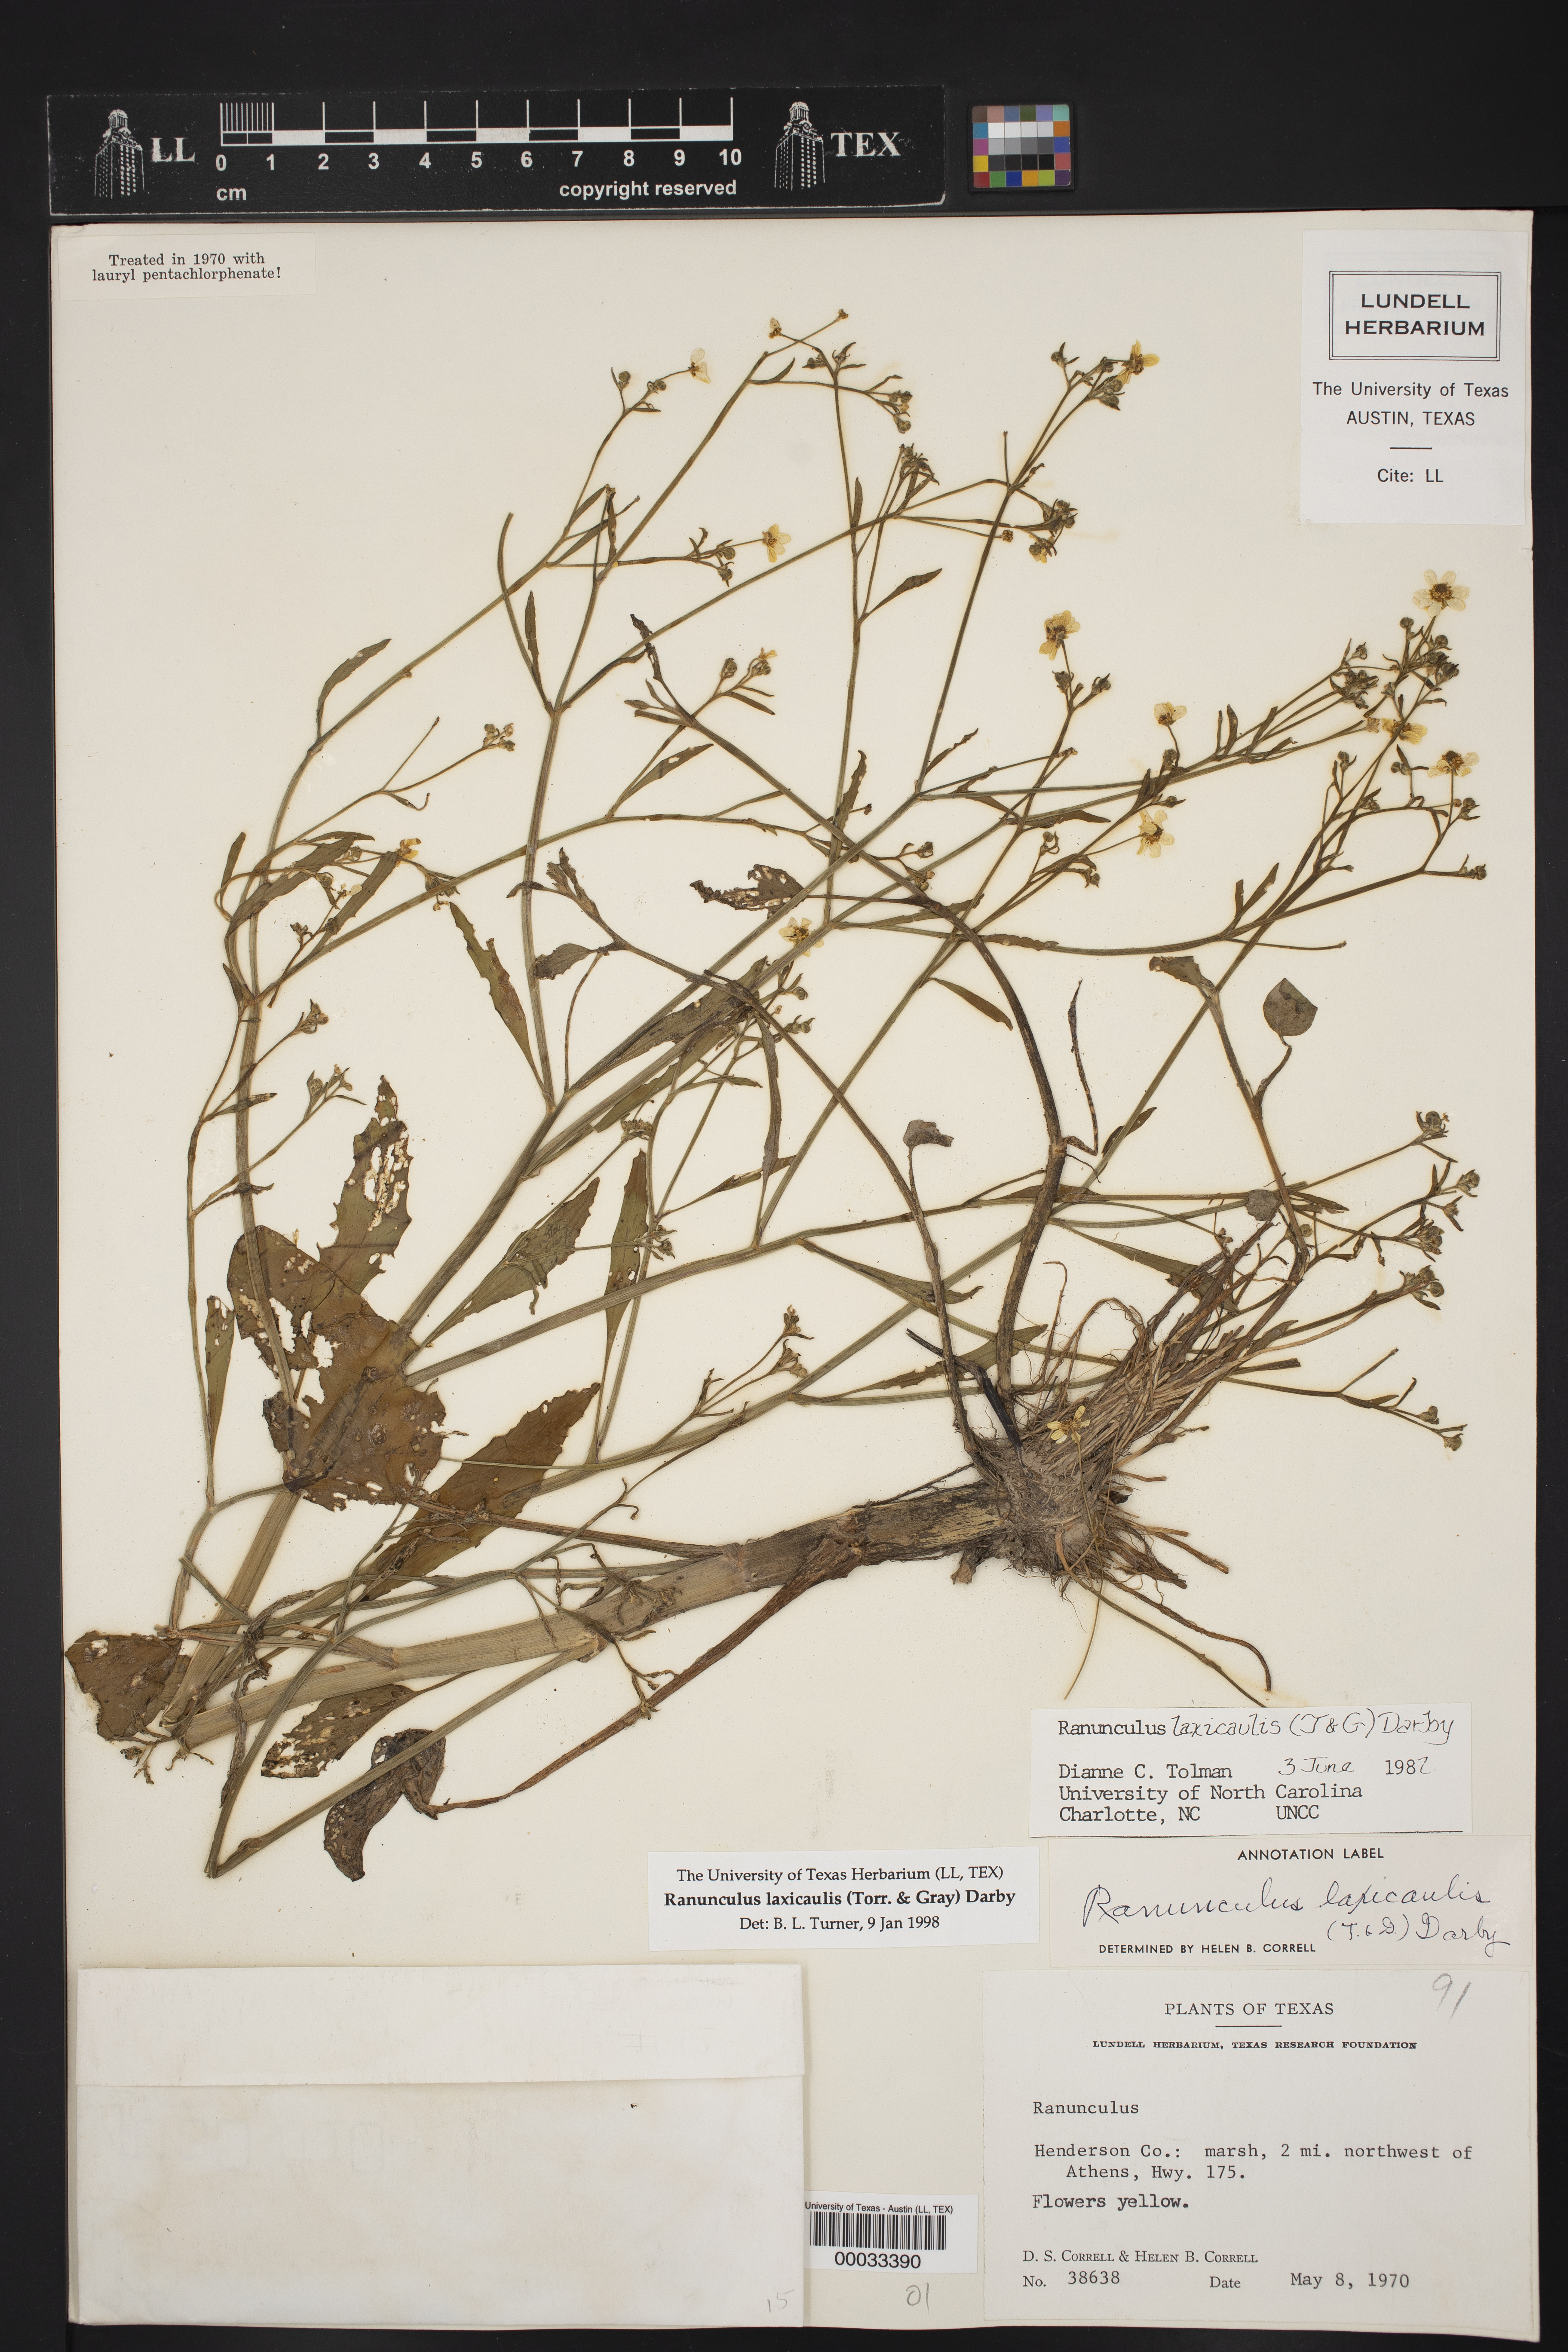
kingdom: Plantae
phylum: Tracheophyta
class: Magnoliopsida
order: Ranunculales
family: Ranunculaceae
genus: Ranunculus
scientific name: Ranunculus laxicaulis
